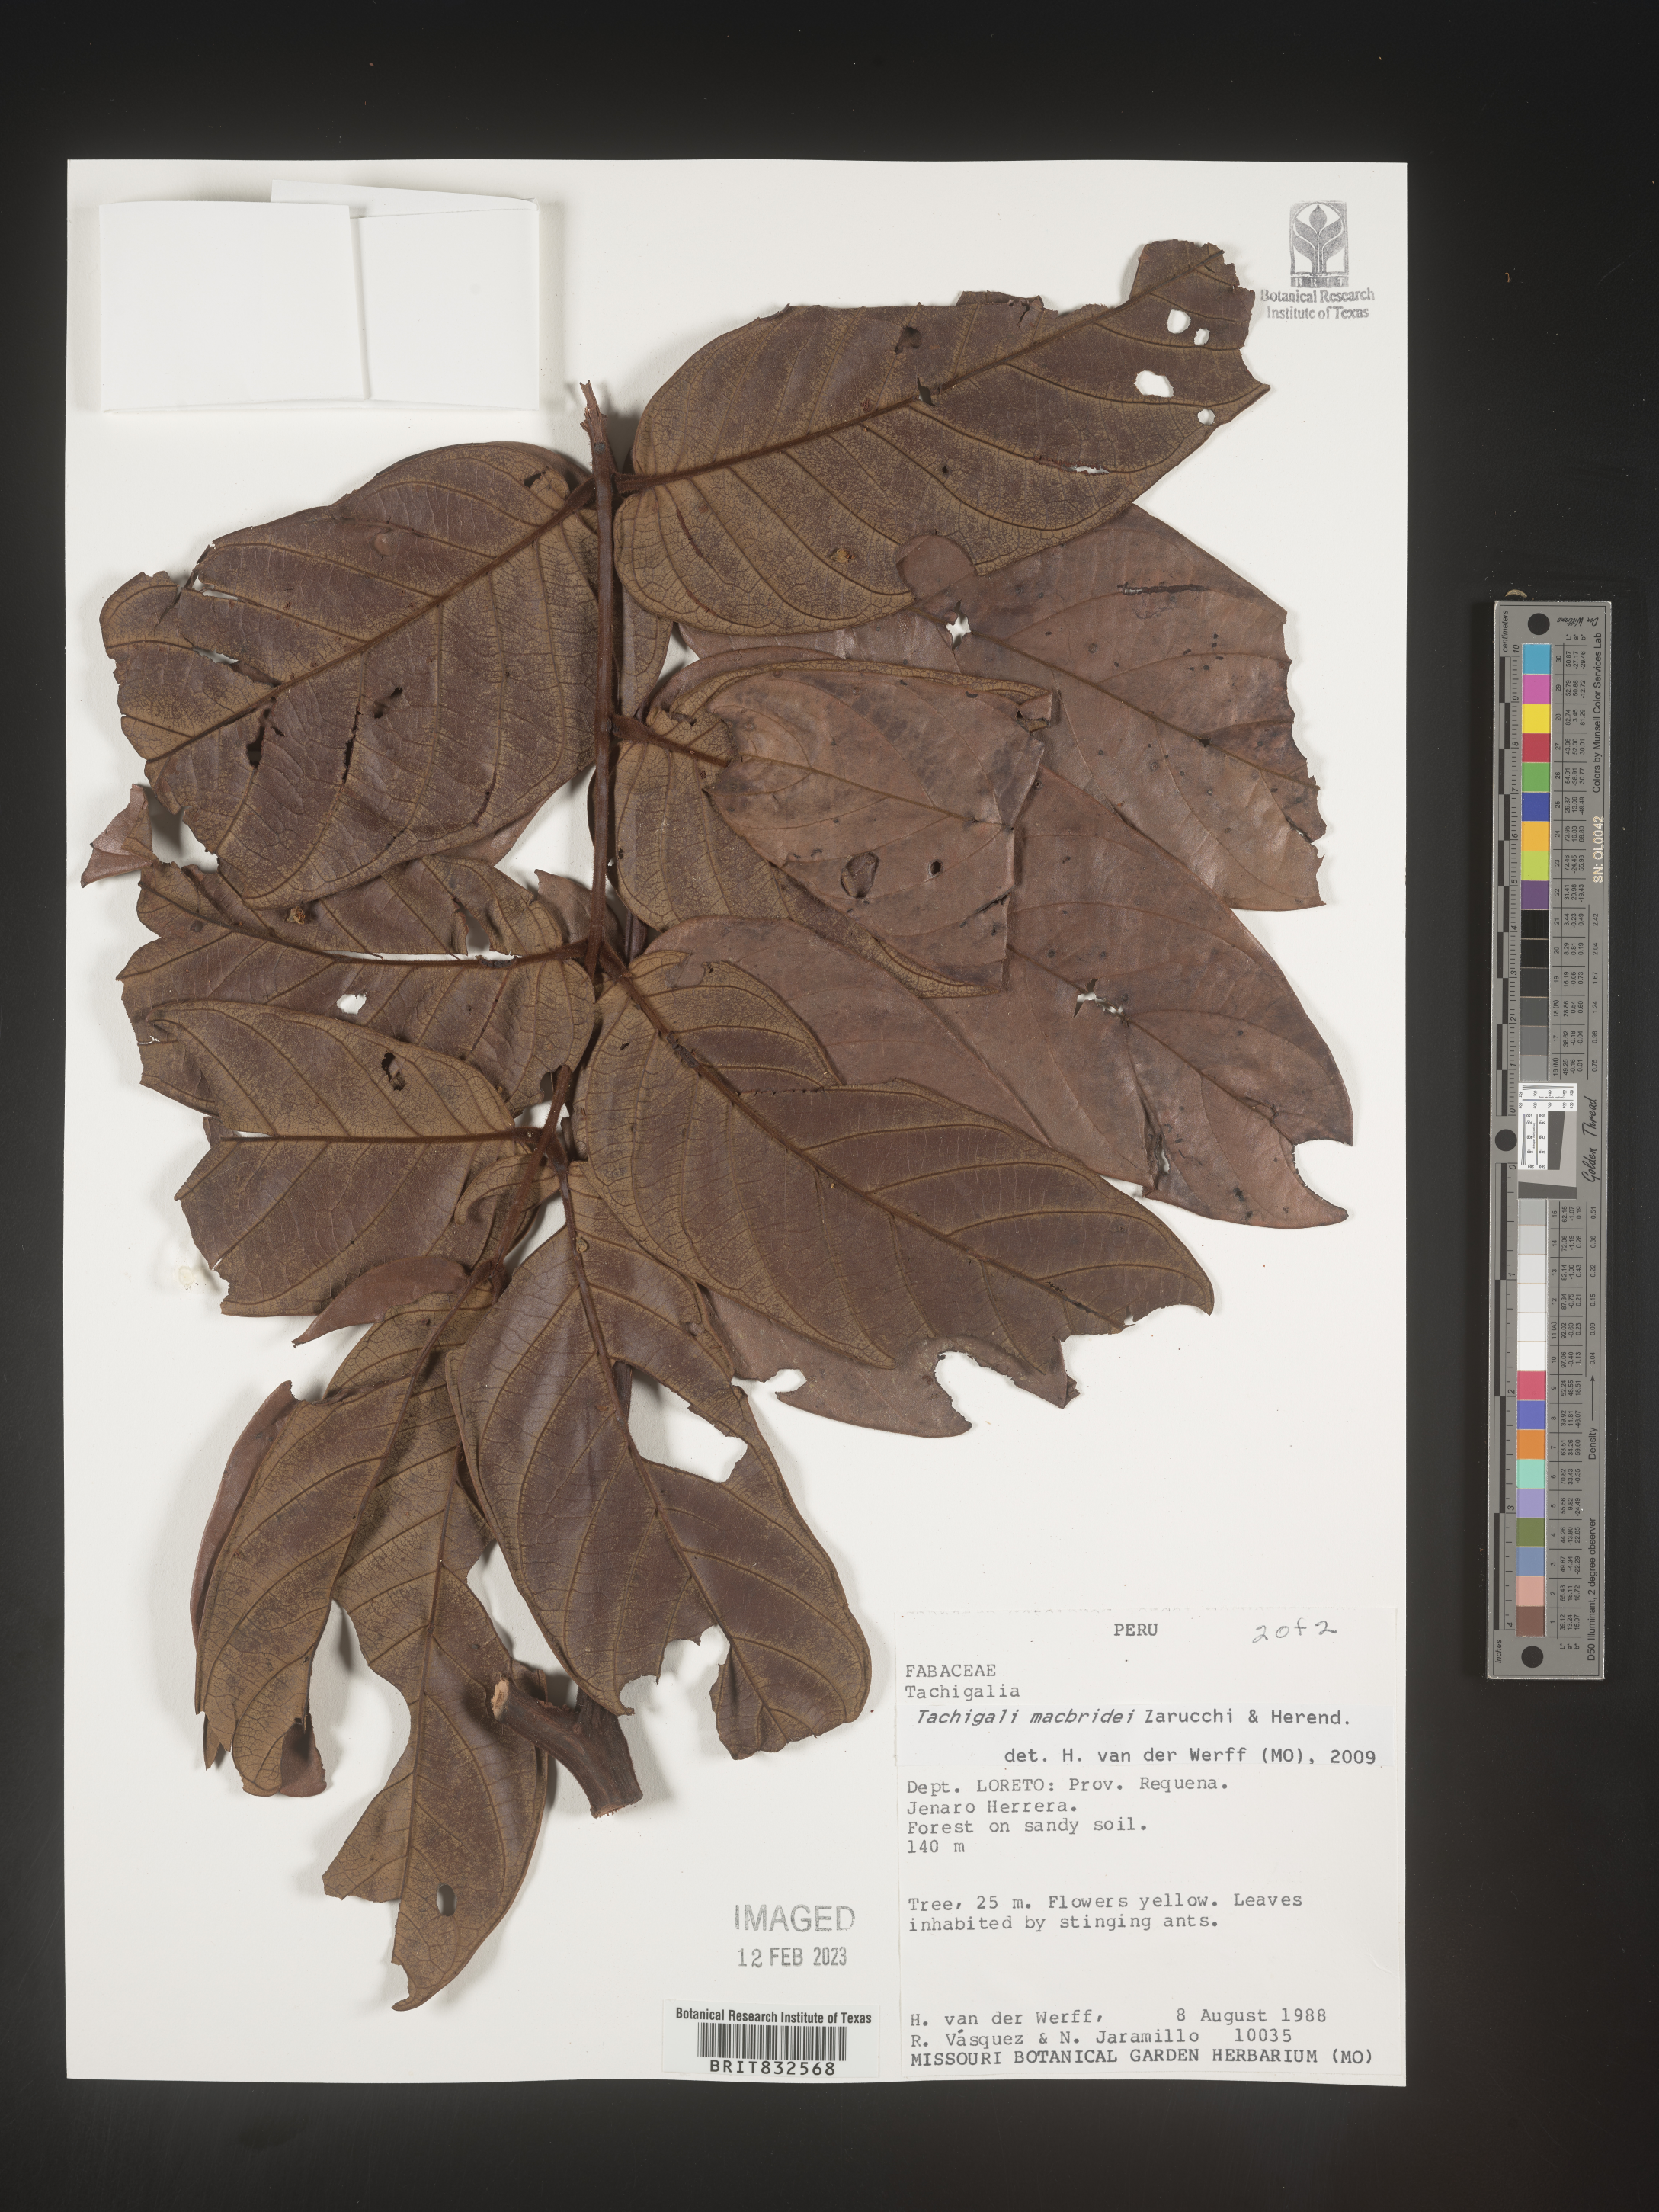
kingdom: Plantae
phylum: Tracheophyta
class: Magnoliopsida
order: Fabales
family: Fabaceae
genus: Tachigali
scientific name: Tachigali macbridei
